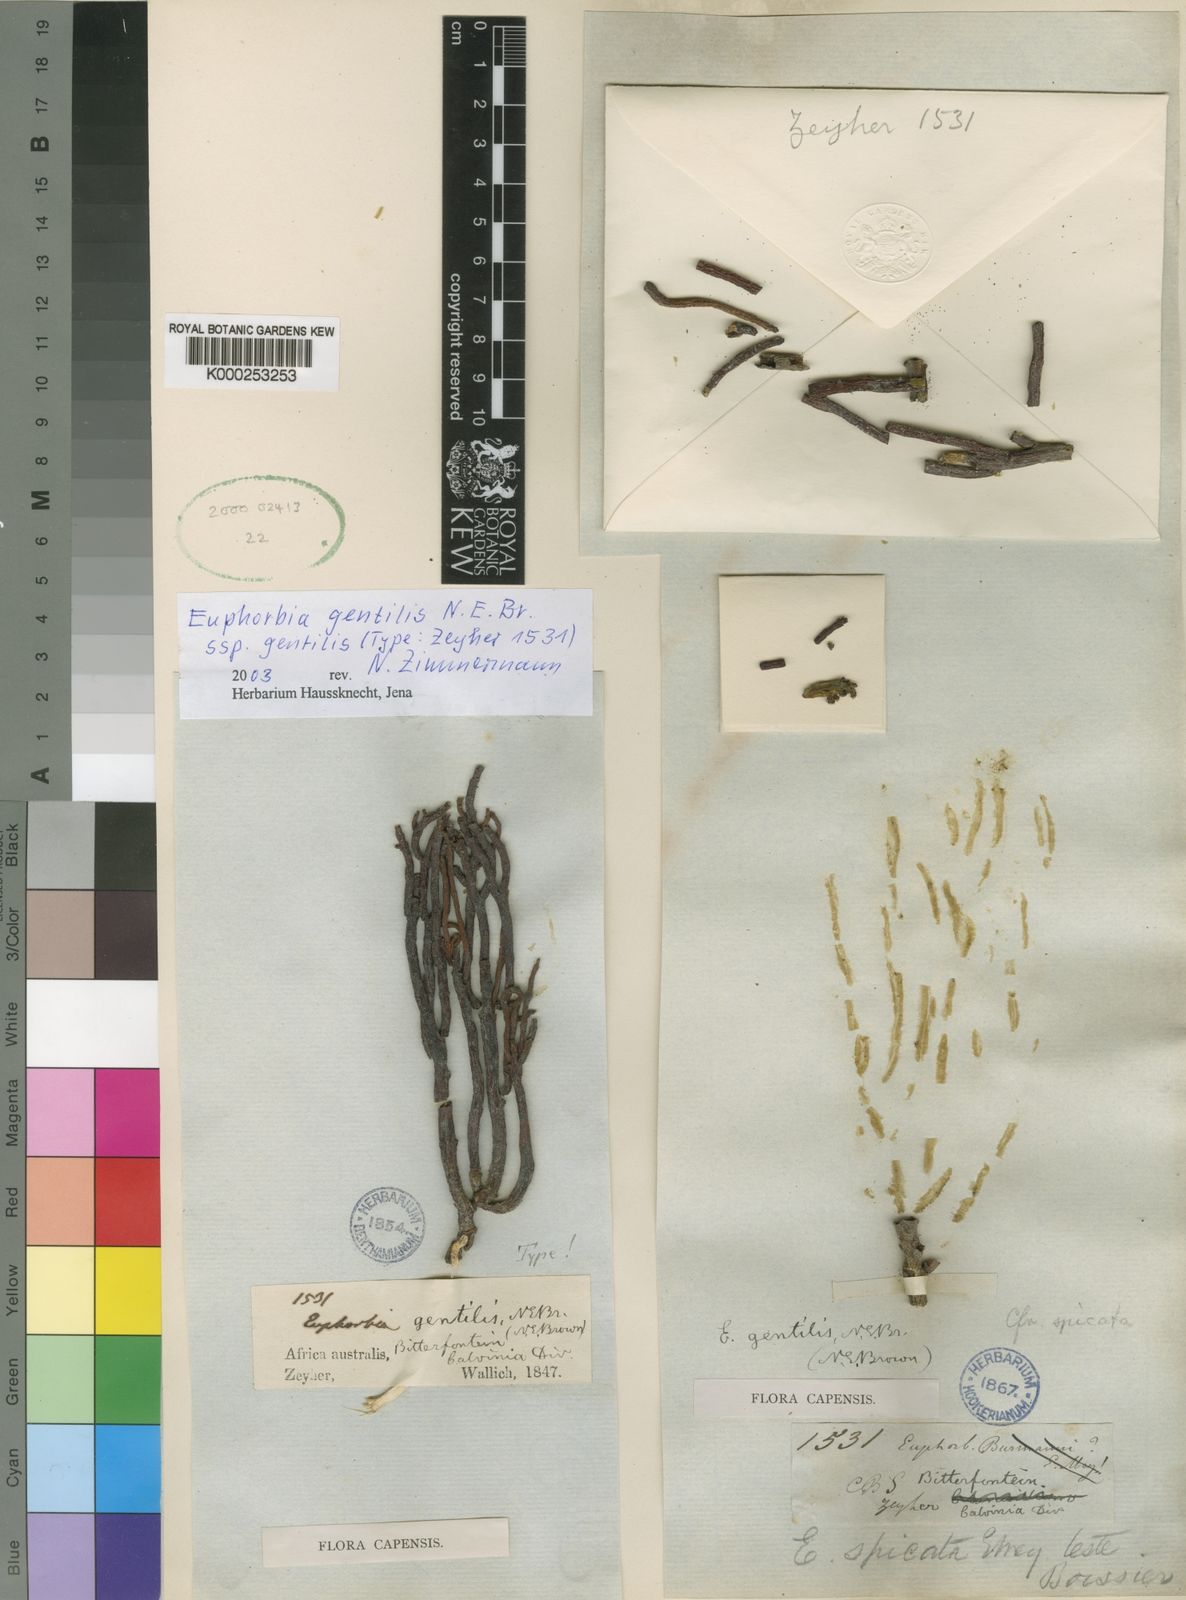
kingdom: Plantae
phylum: Tracheophyta
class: Magnoliopsida
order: Malpighiales
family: Euphorbiaceae
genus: Euphorbia
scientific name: Euphorbia gentilis
